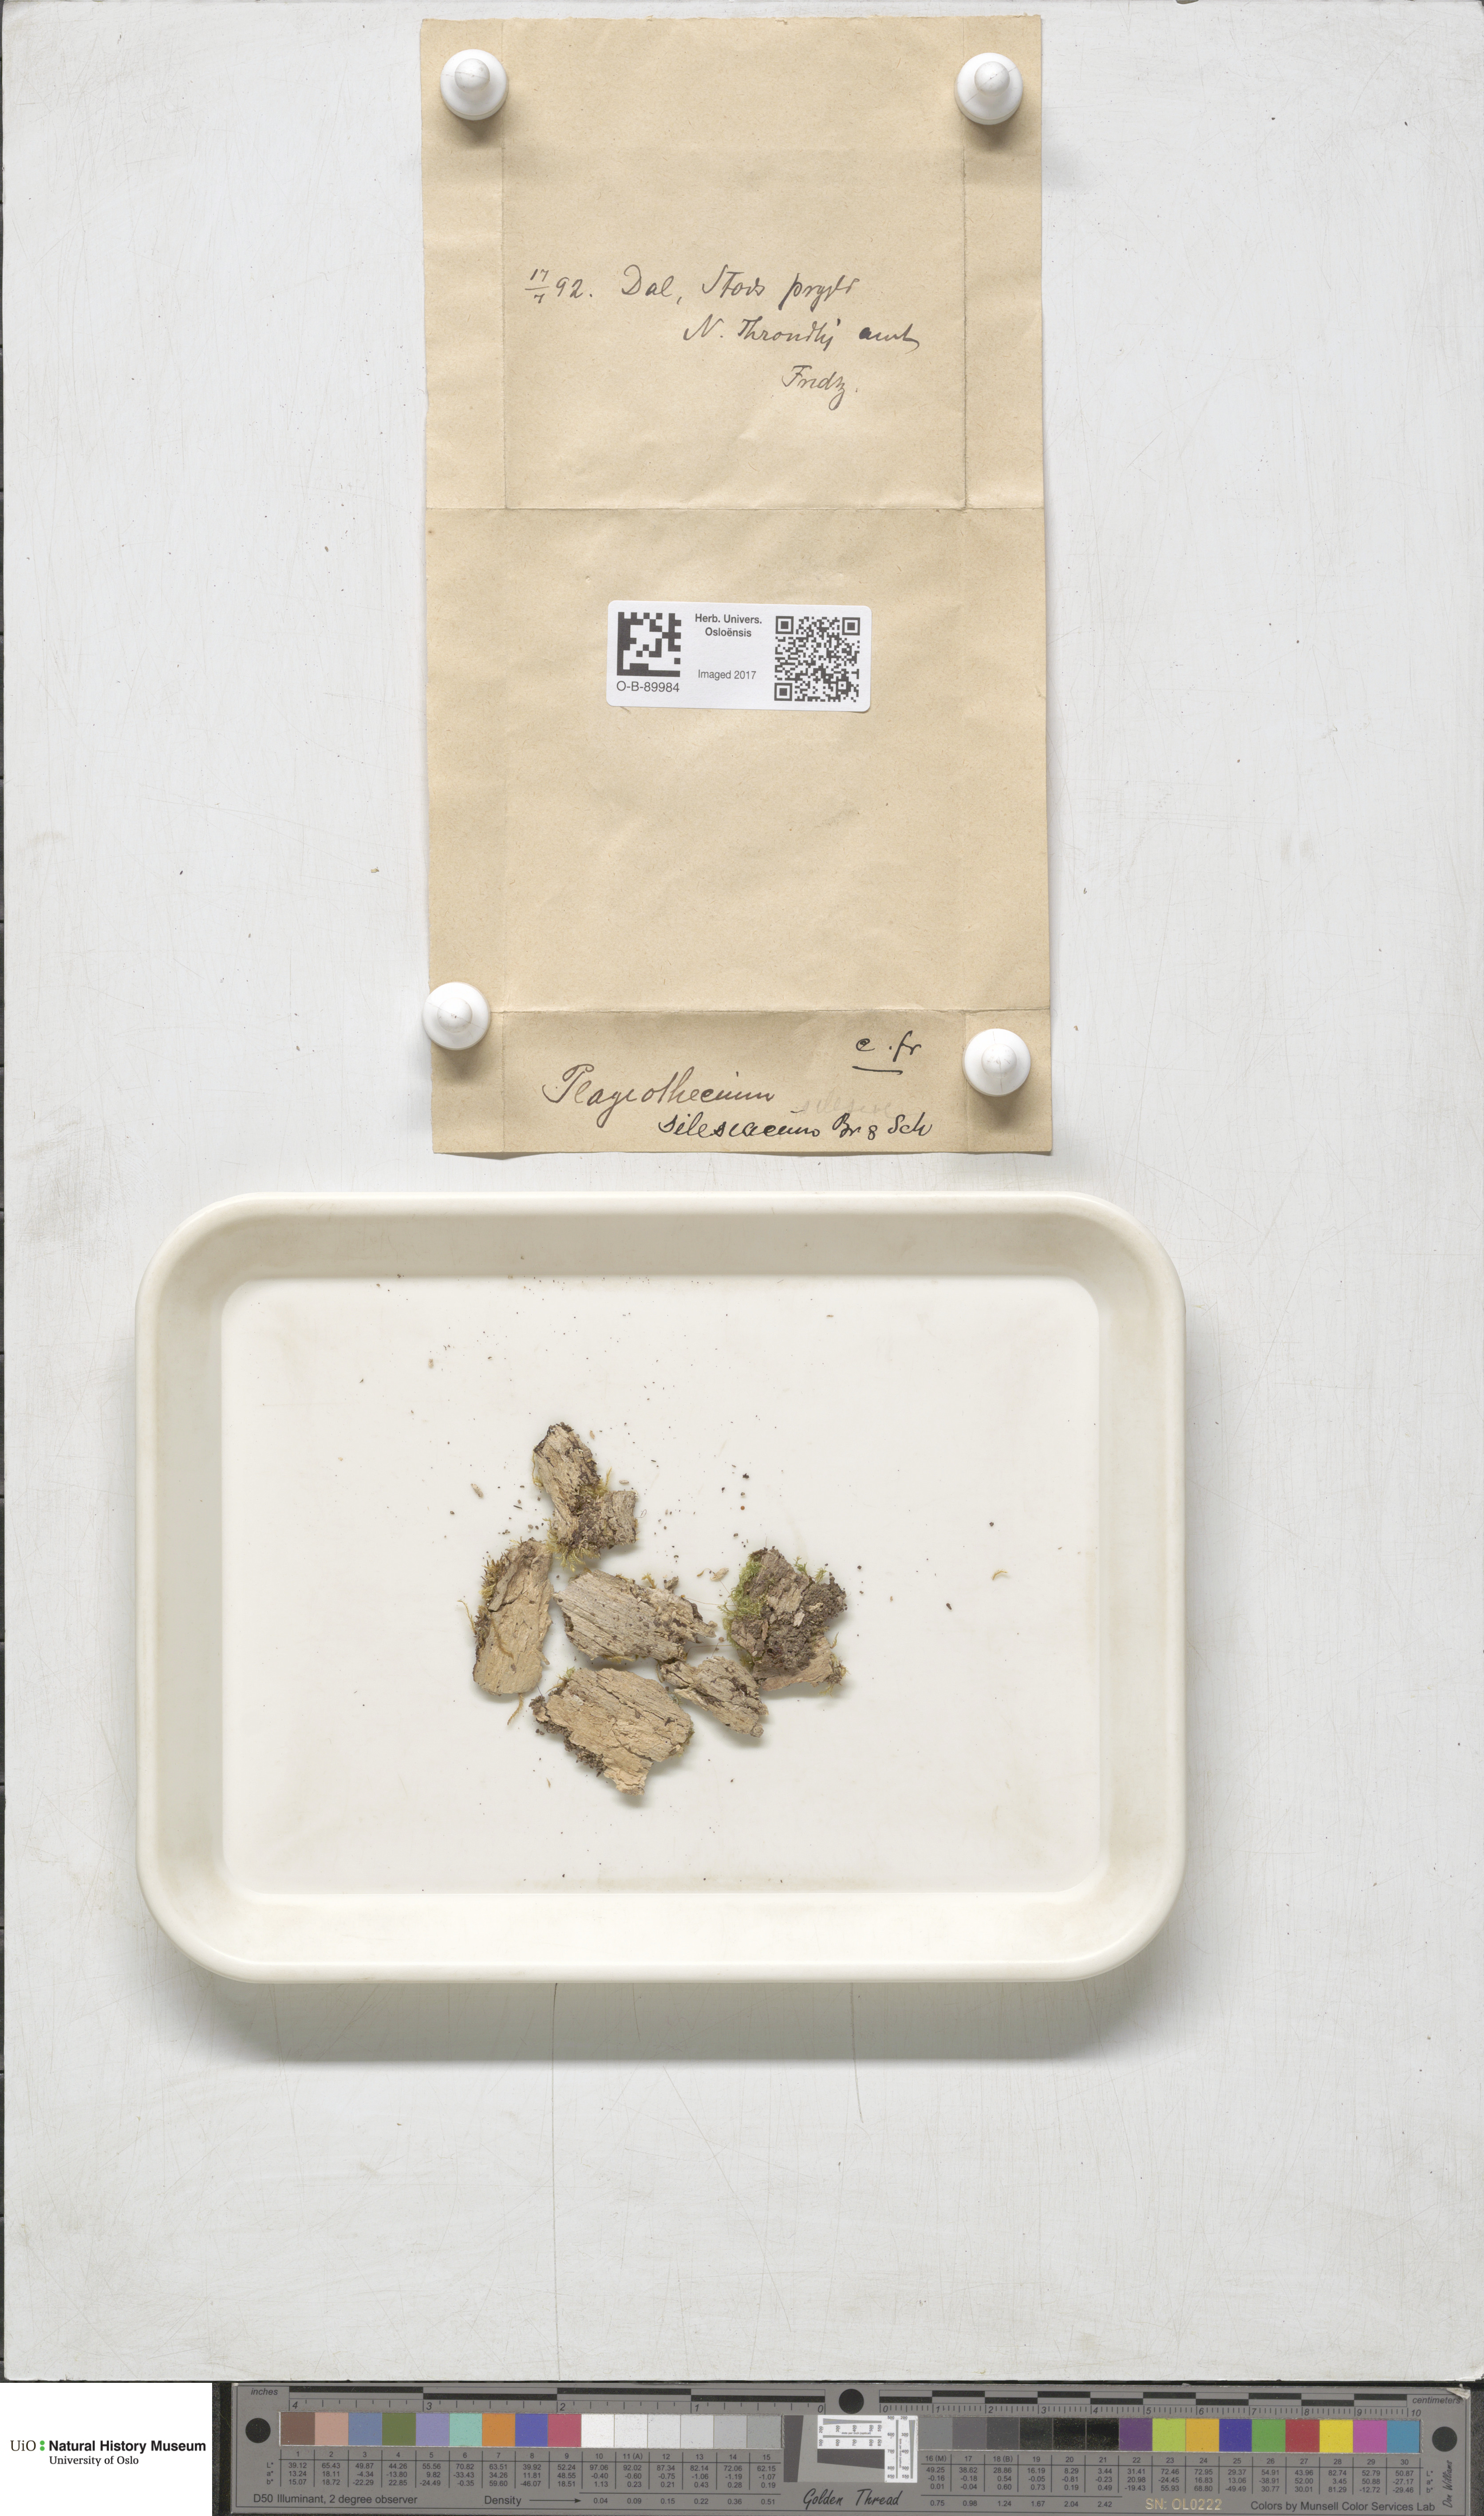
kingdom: Plantae
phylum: Bryophyta
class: Bryopsida
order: Hypnales
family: Plagiotheciaceae
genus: Herzogiella
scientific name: Herzogiella seligeri
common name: Silesian feather-moss
